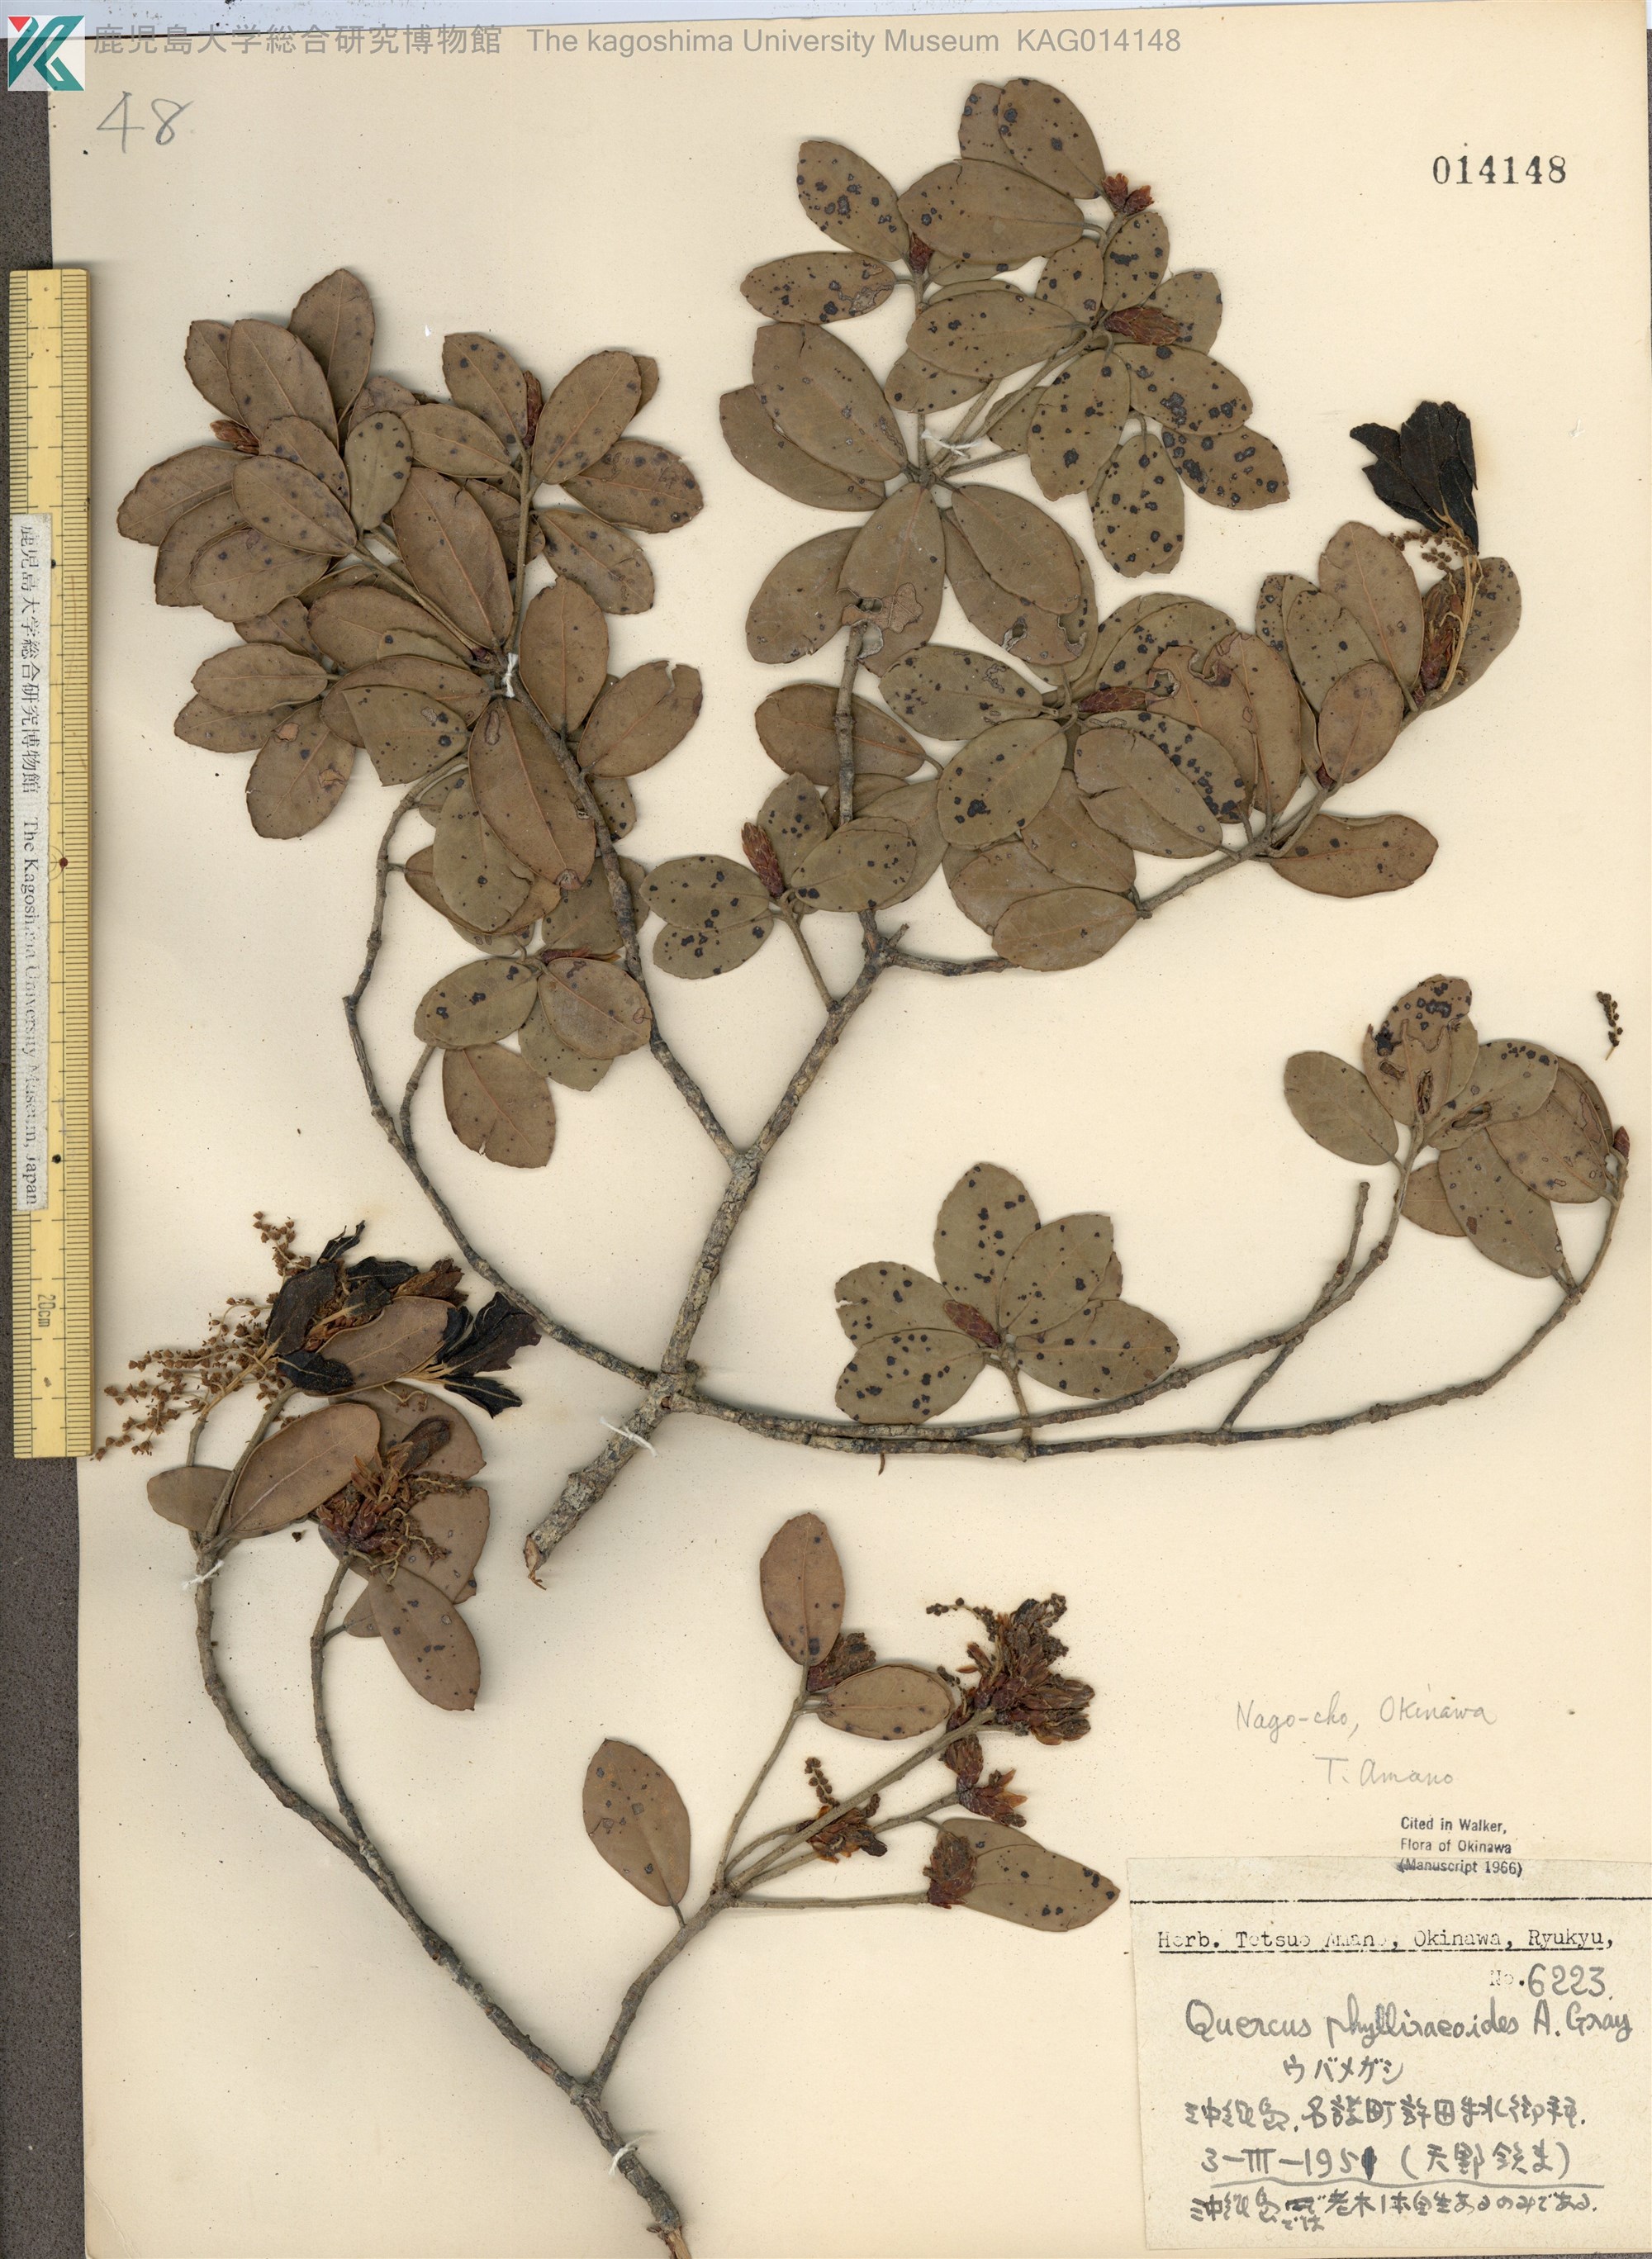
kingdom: Plantae
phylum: Tracheophyta
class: Magnoliopsida
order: Fagales
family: Fagaceae
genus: Quercus
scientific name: Quercus phillyraeoides
